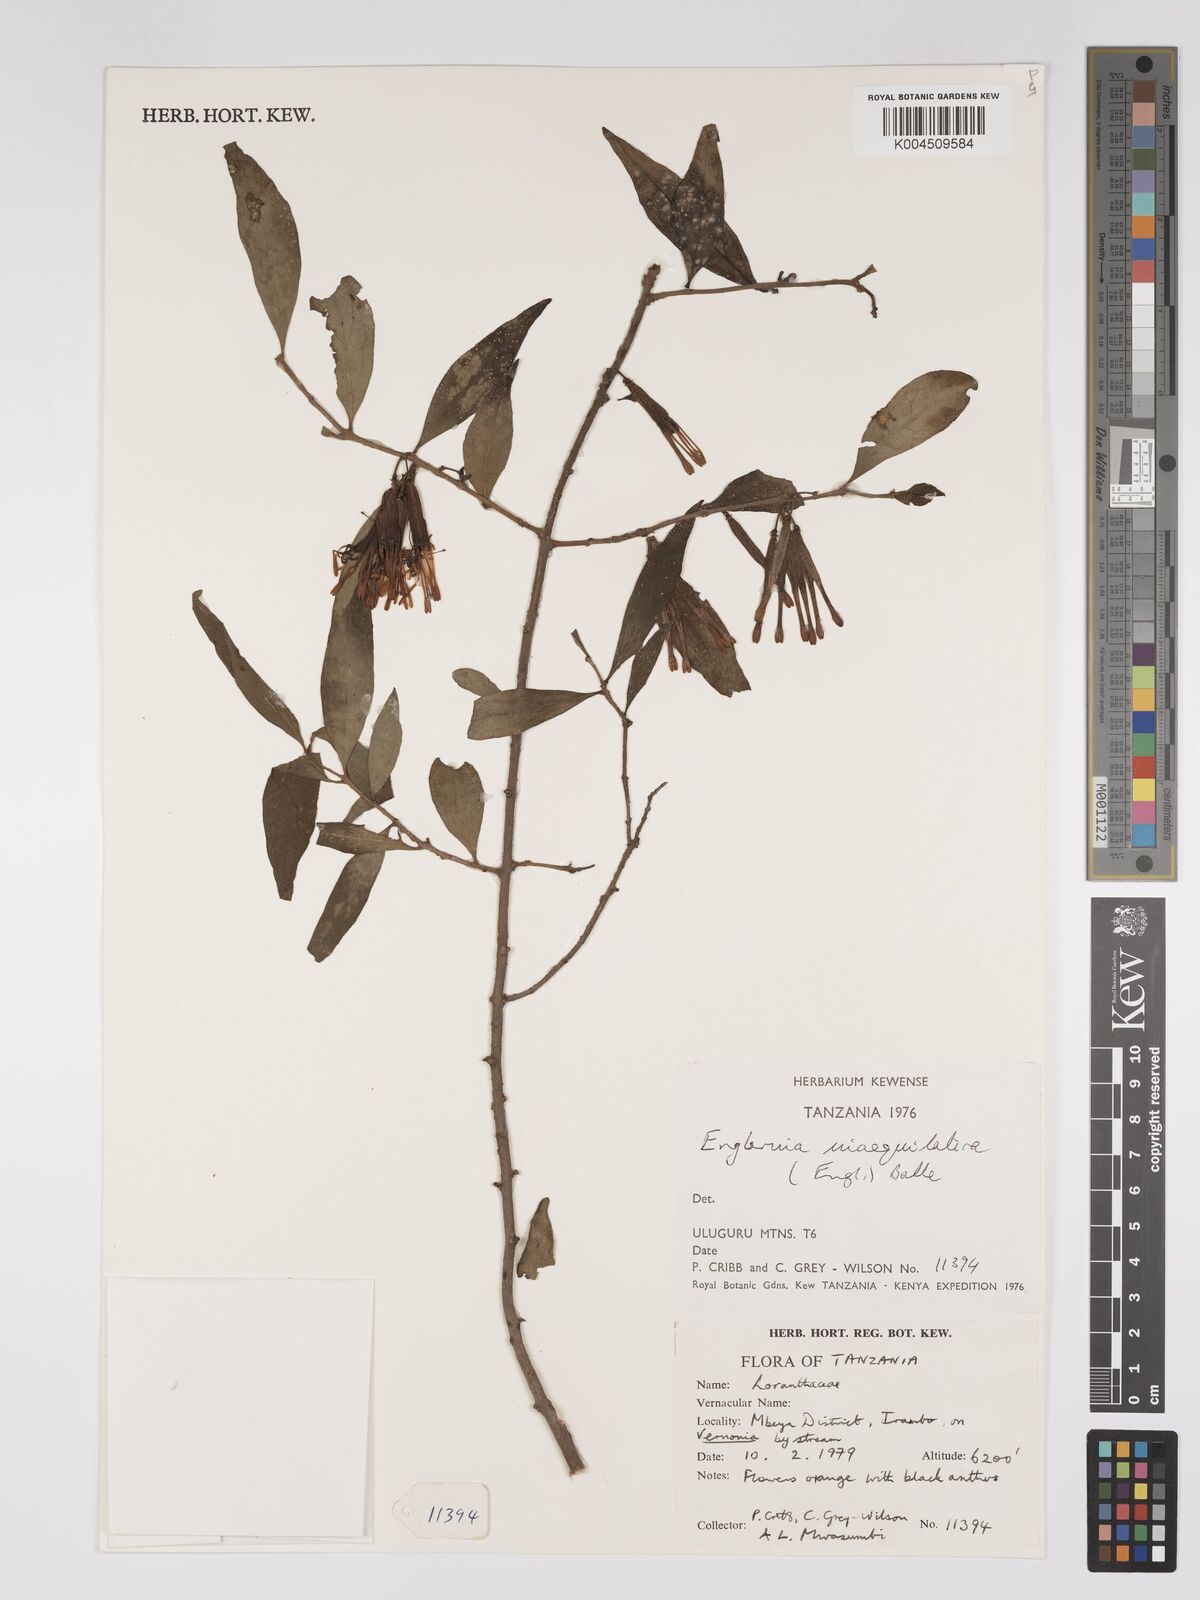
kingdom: Plantae
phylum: Tracheophyta
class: Magnoliopsida
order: Santalales
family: Loranthaceae
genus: Englerina
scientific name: Englerina inaequilatera
